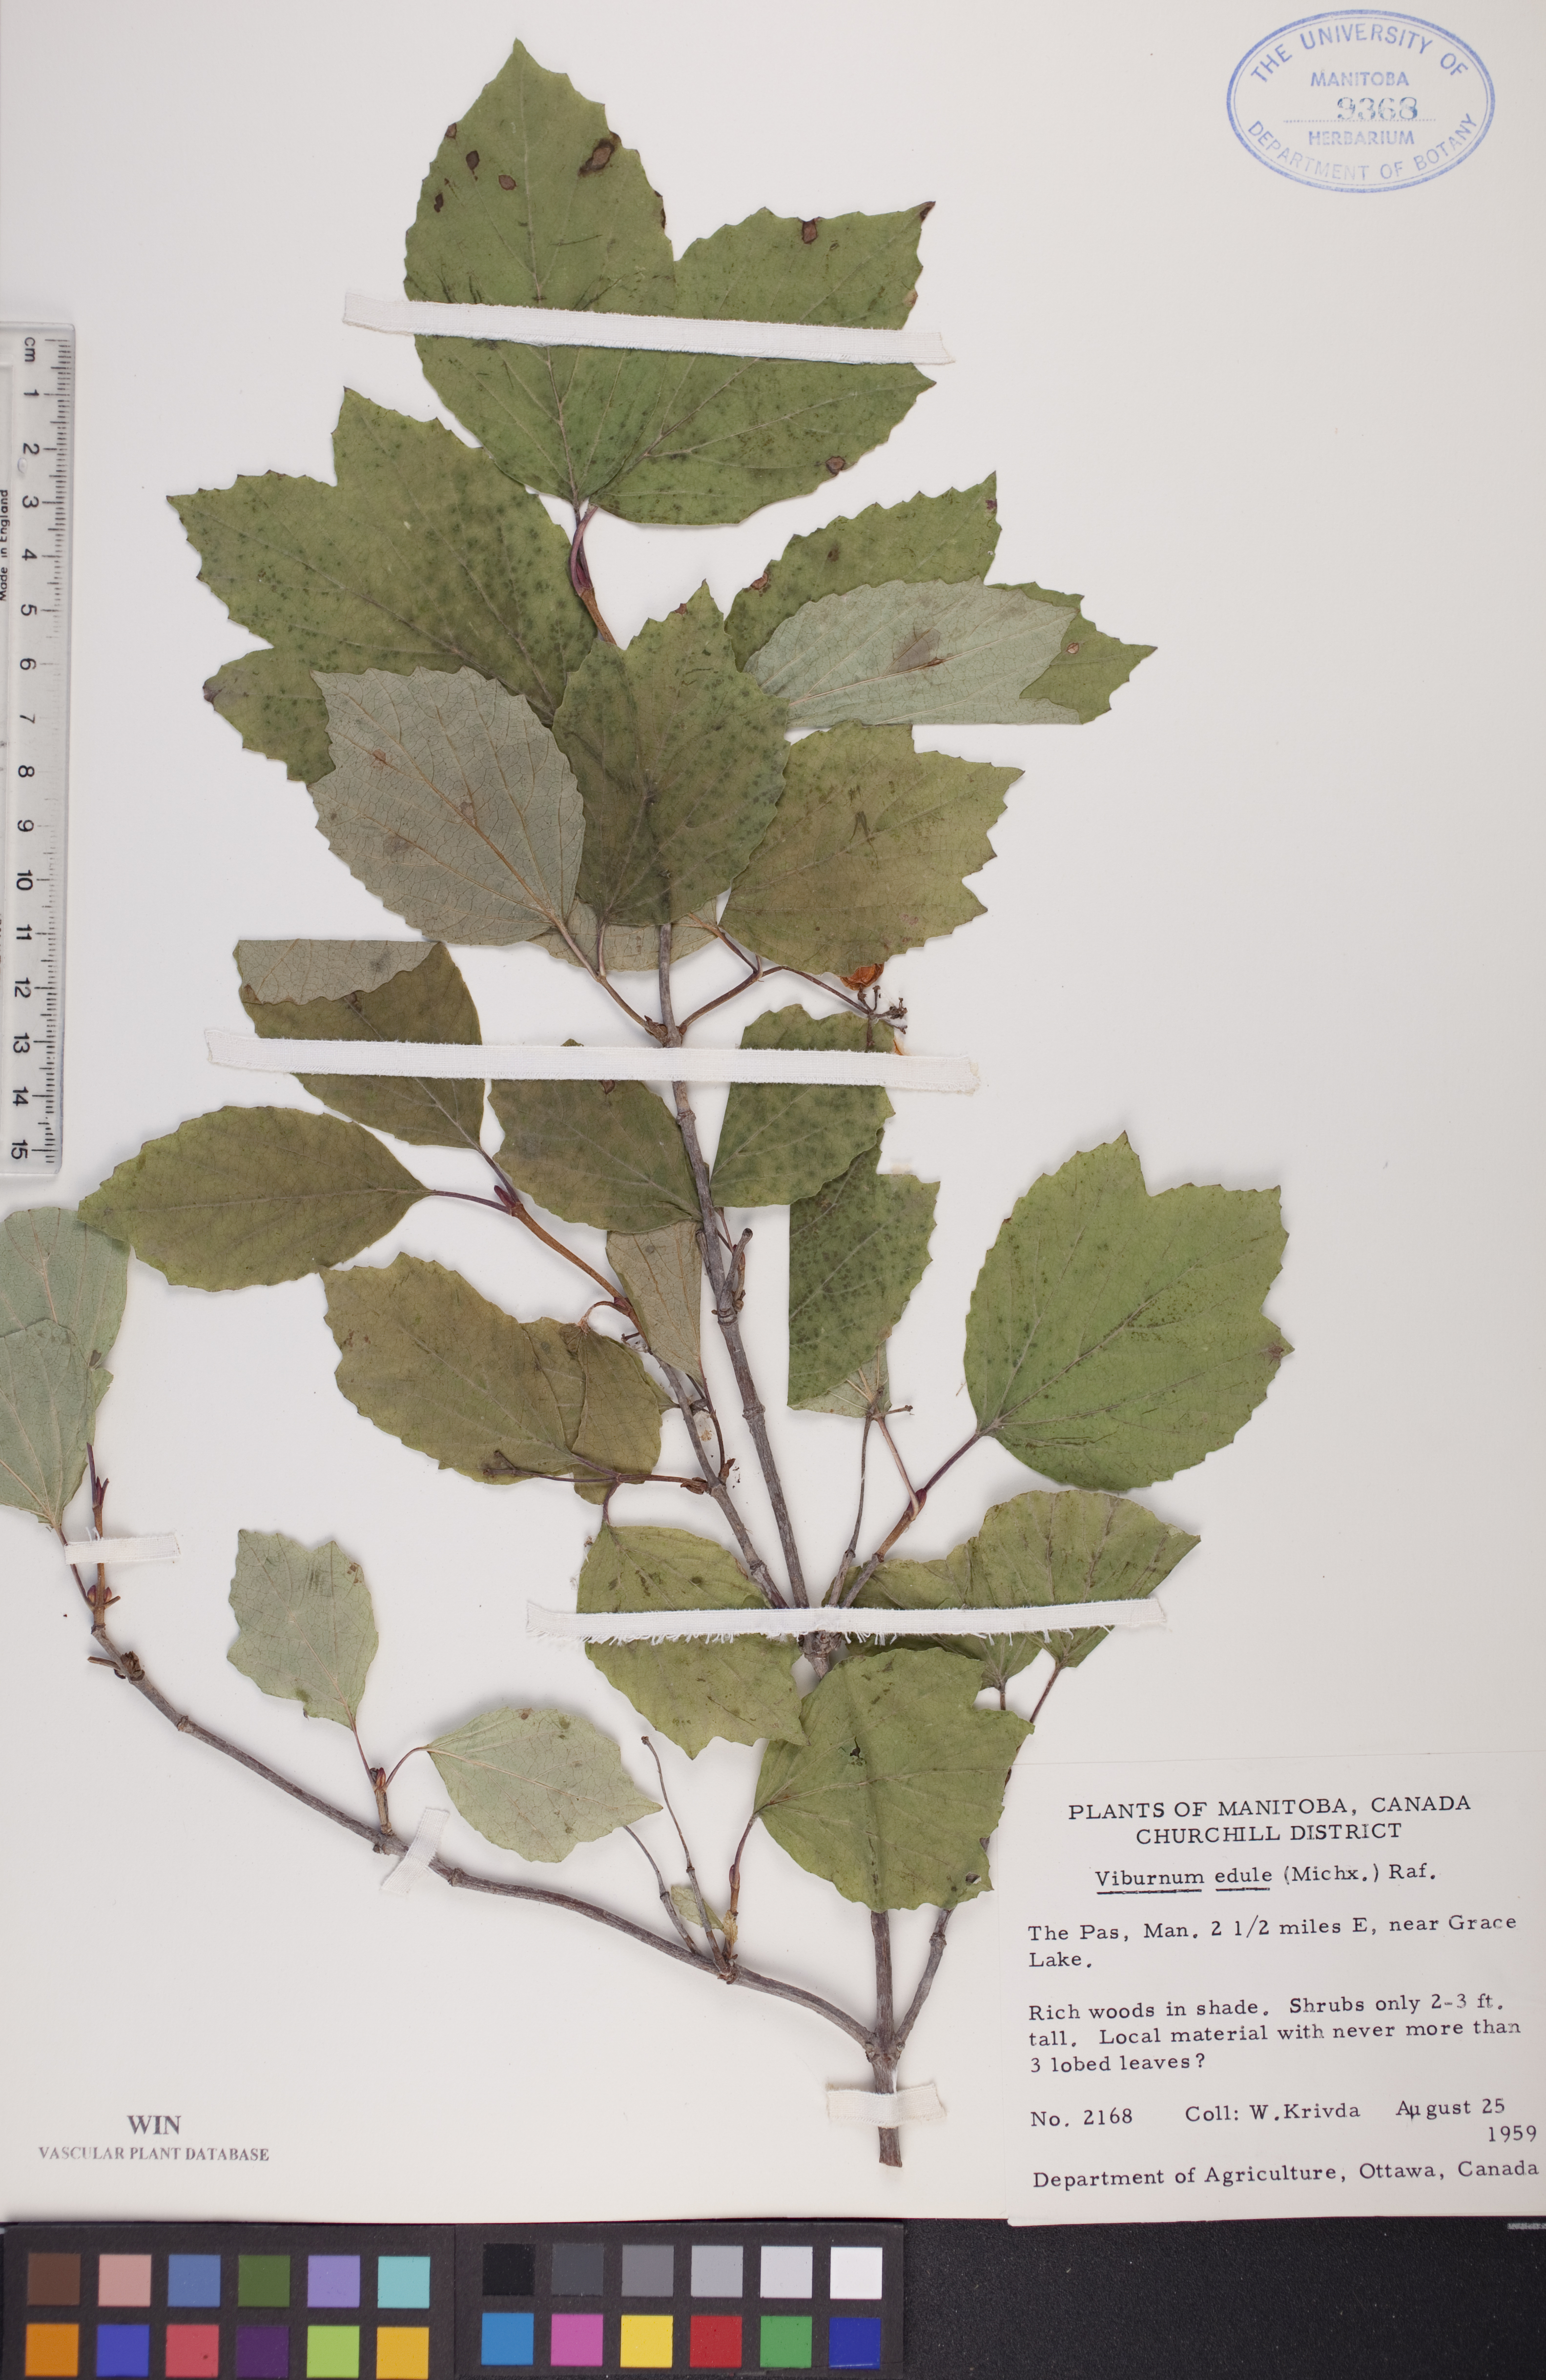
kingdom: Plantae
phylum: Tracheophyta
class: Magnoliopsida
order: Dipsacales
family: Viburnaceae
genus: Viburnum
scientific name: Viburnum edule
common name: Mooseberry
